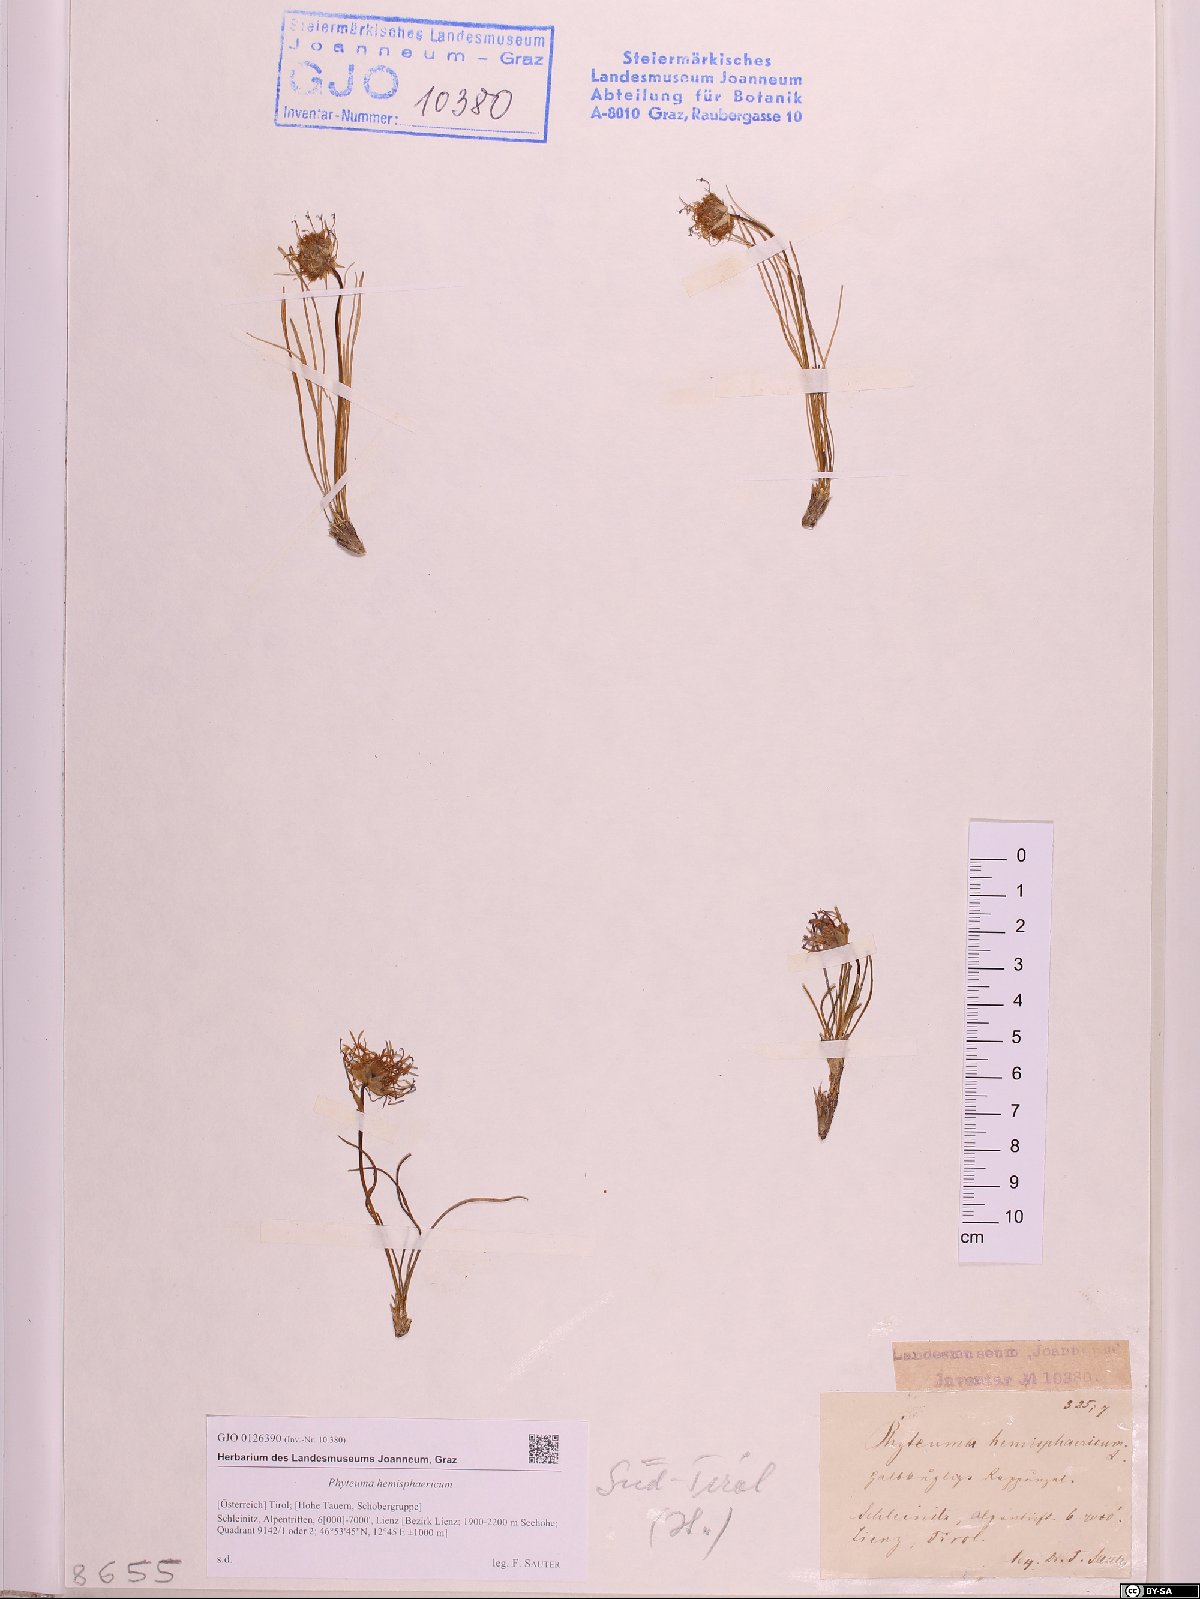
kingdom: Plantae
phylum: Tracheophyta
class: Magnoliopsida
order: Asterales
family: Campanulaceae
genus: Phyteuma
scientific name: Phyteuma hemisphaericum
